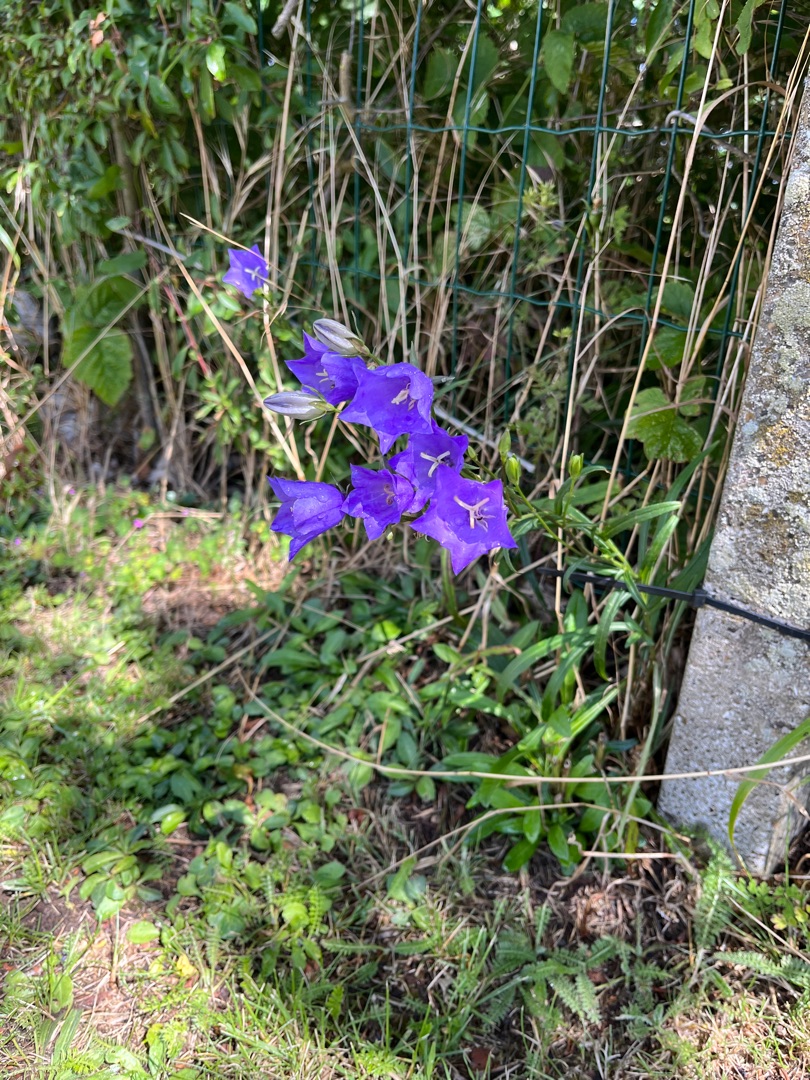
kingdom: Plantae
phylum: Tracheophyta
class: Magnoliopsida
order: Asterales
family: Campanulaceae
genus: Campanula
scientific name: Campanula persicifolia
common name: Smalbladet klokke
